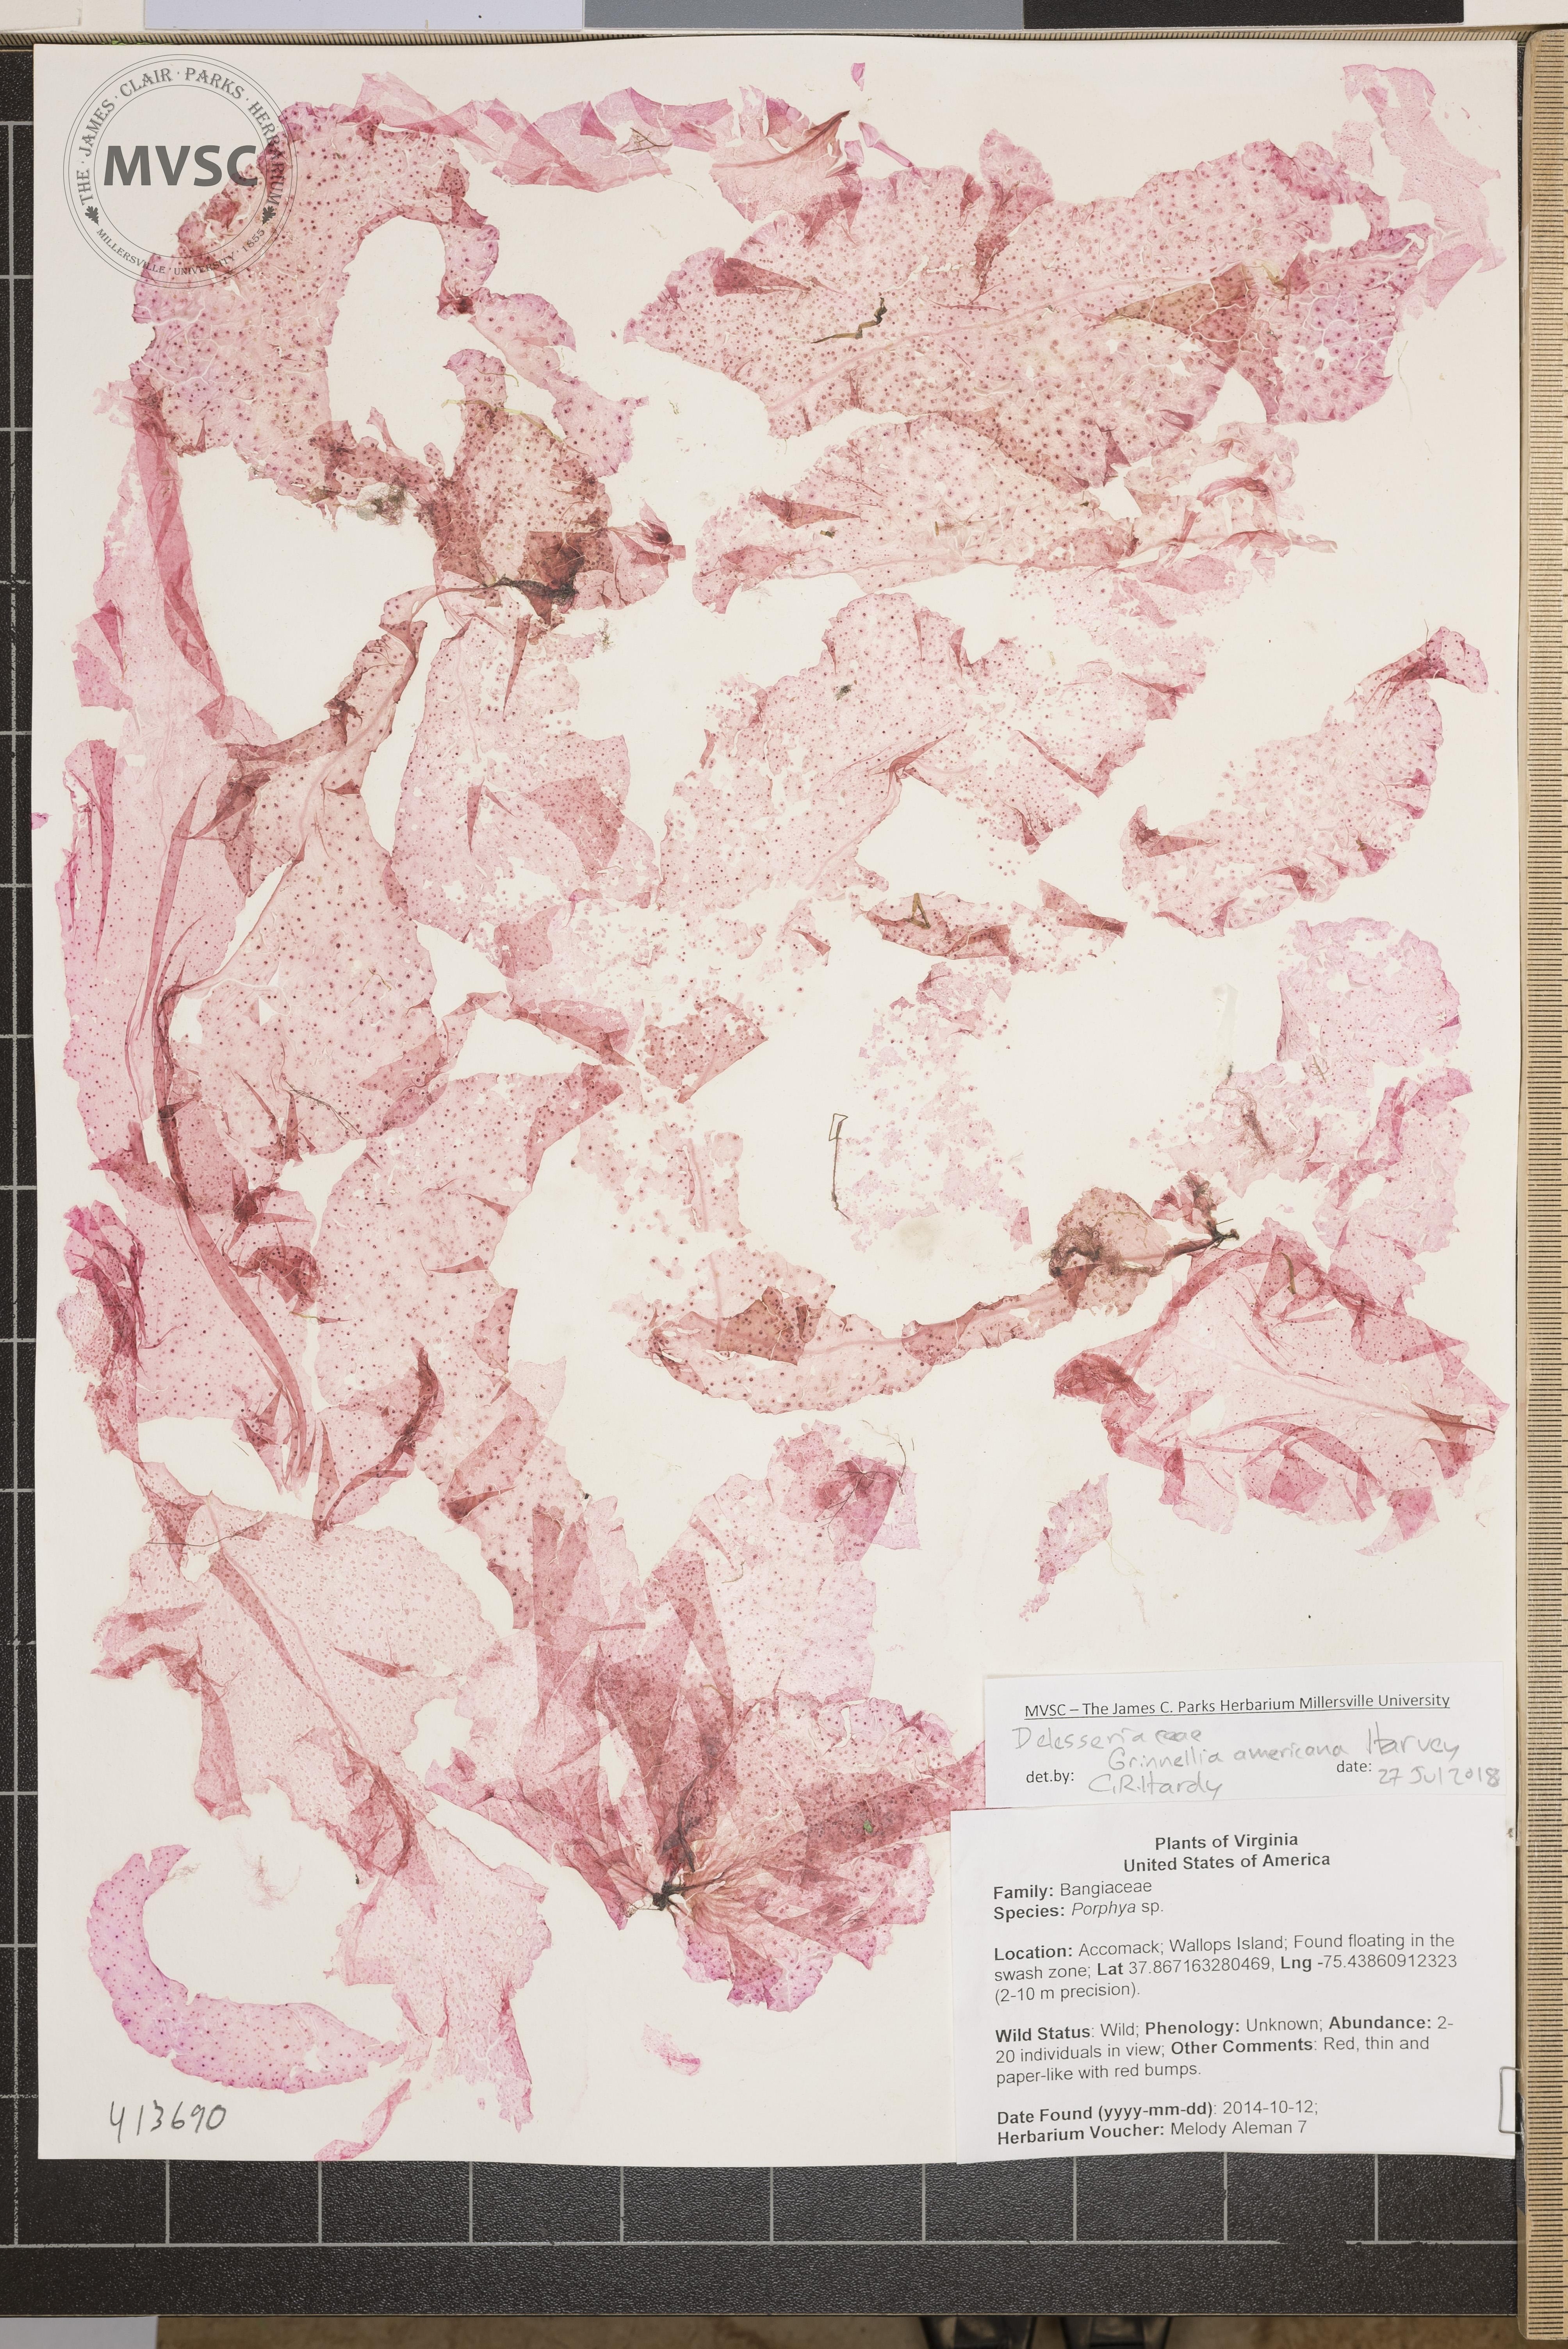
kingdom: Plantae
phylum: Rhodophyta
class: Florideophyceae
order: Ceramiales
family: Delesseriaceae
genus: Grinnellia
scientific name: Grinnellia americana
